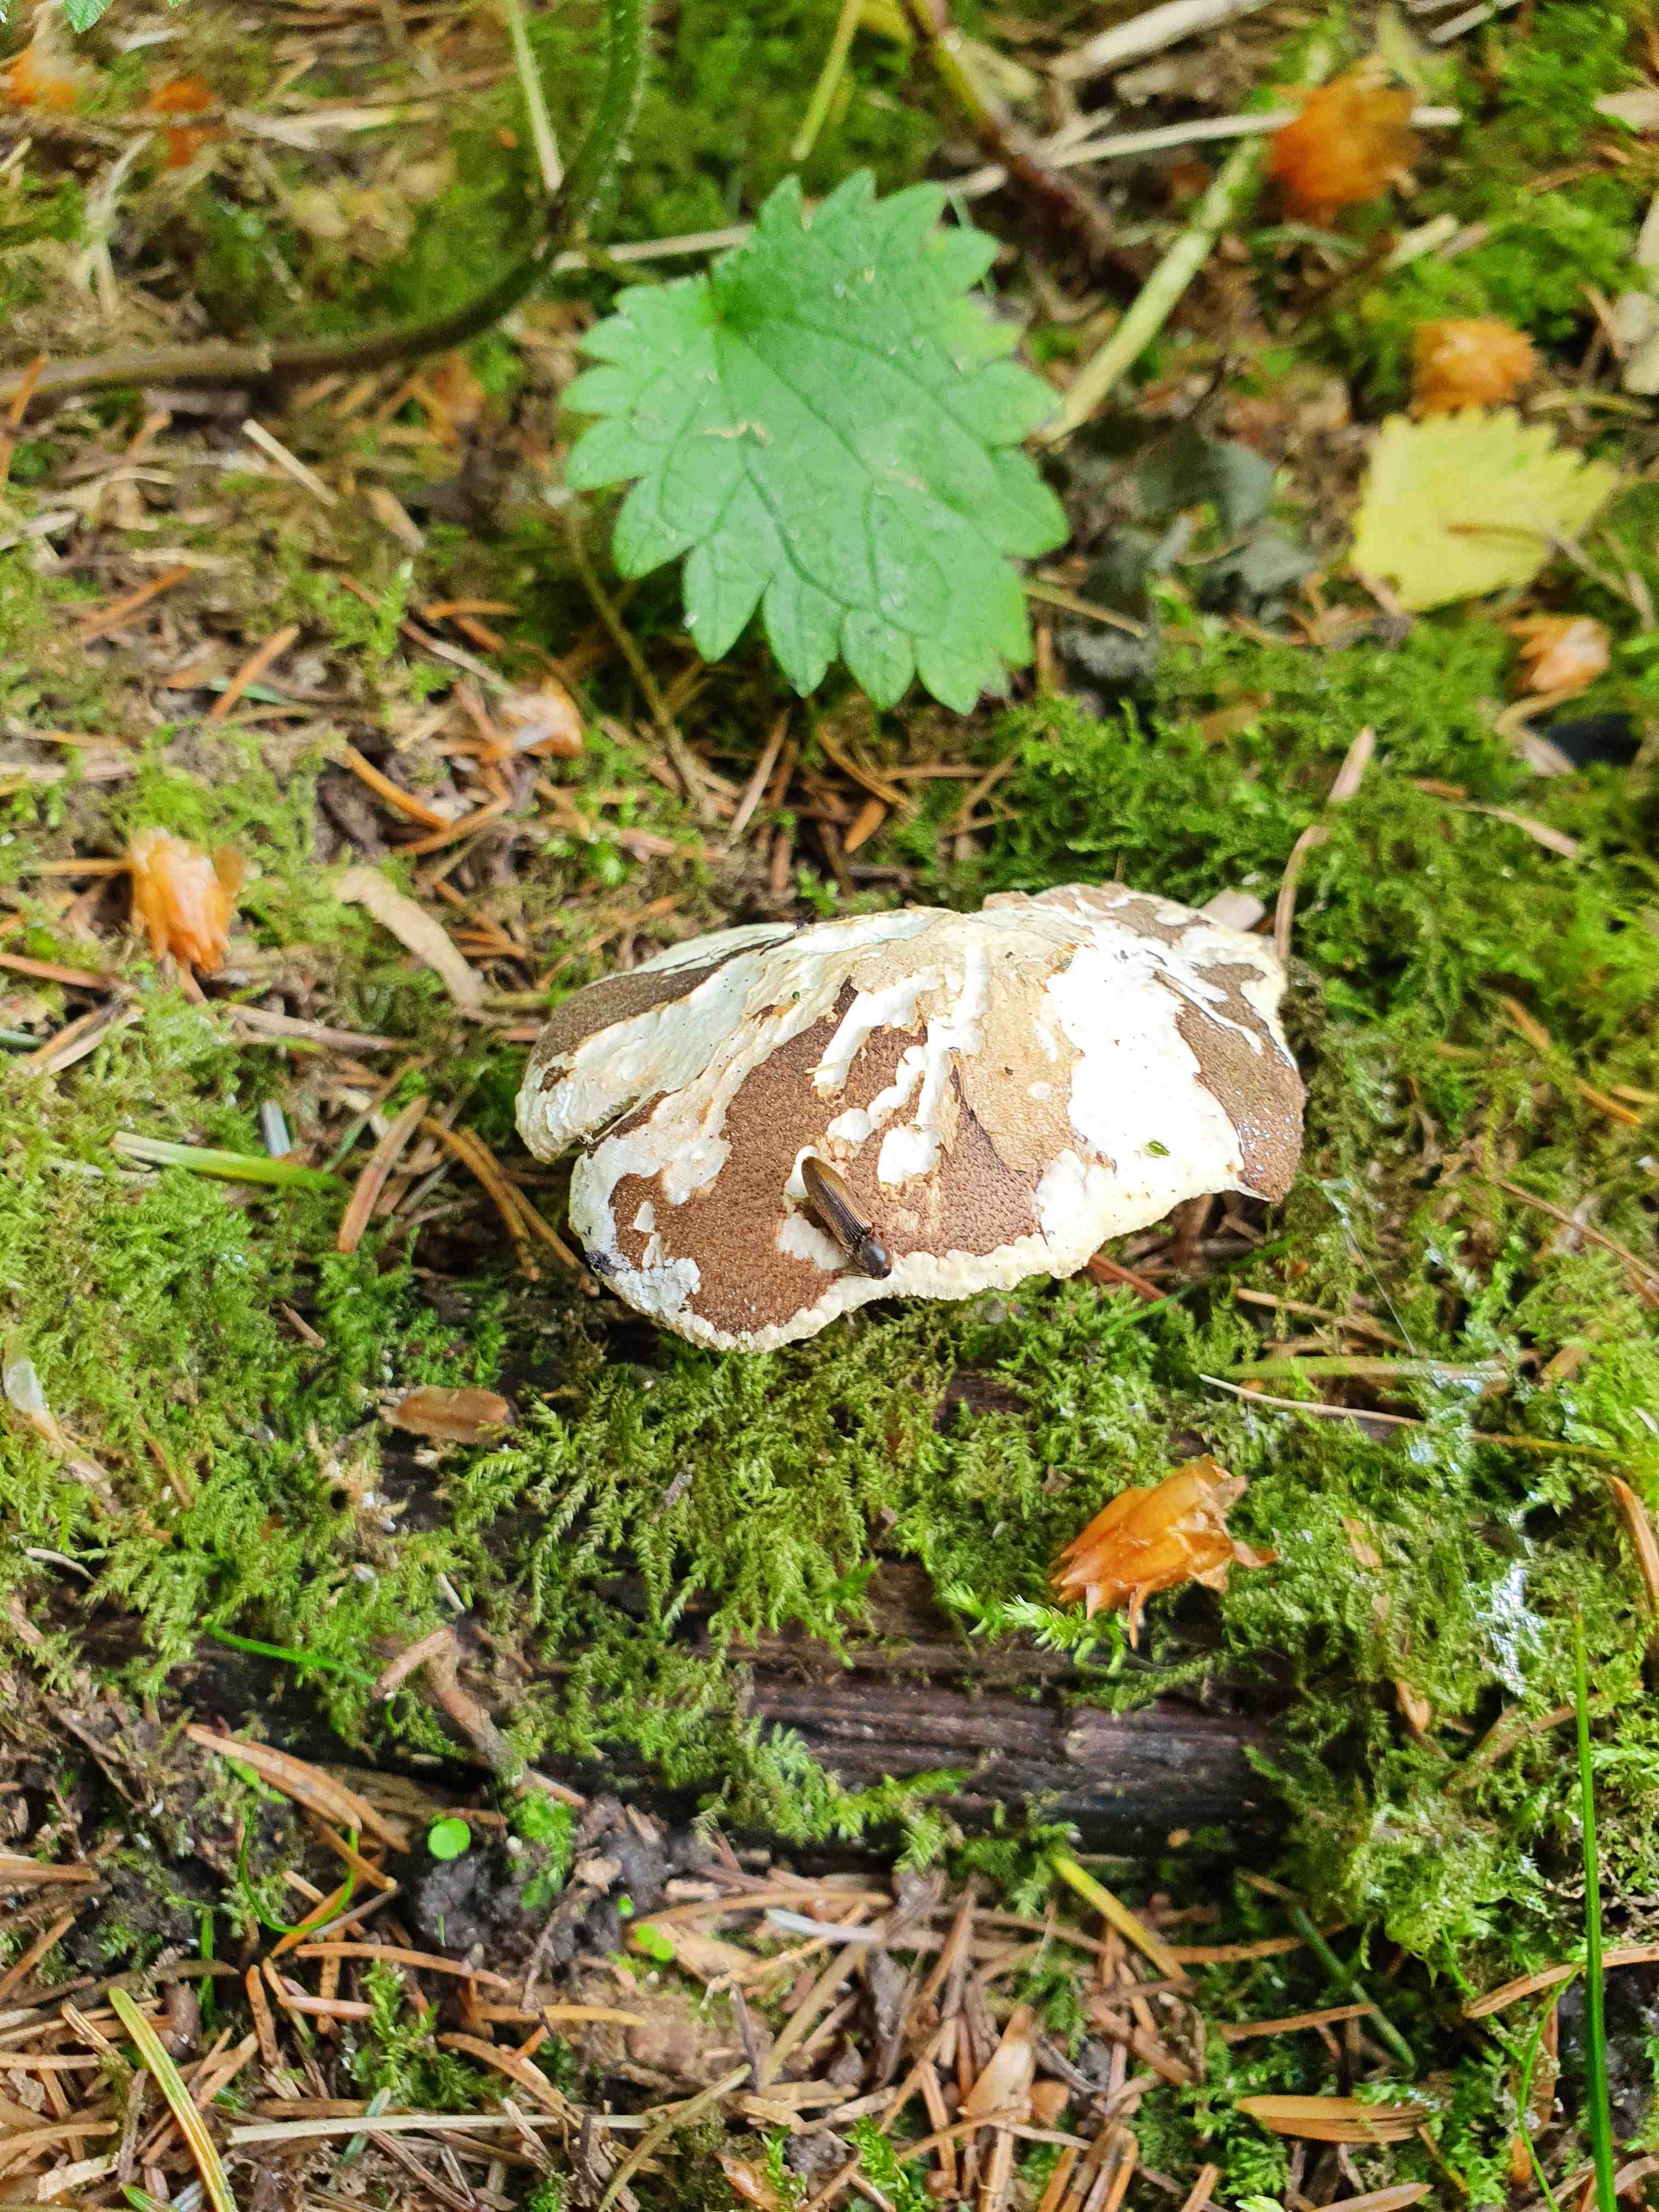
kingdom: Fungi
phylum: Basidiomycota
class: Agaricomycetes
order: Polyporales
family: Polyporaceae
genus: Lentinus
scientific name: Lentinus substrictus
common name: forårs-stilkporesvamp
